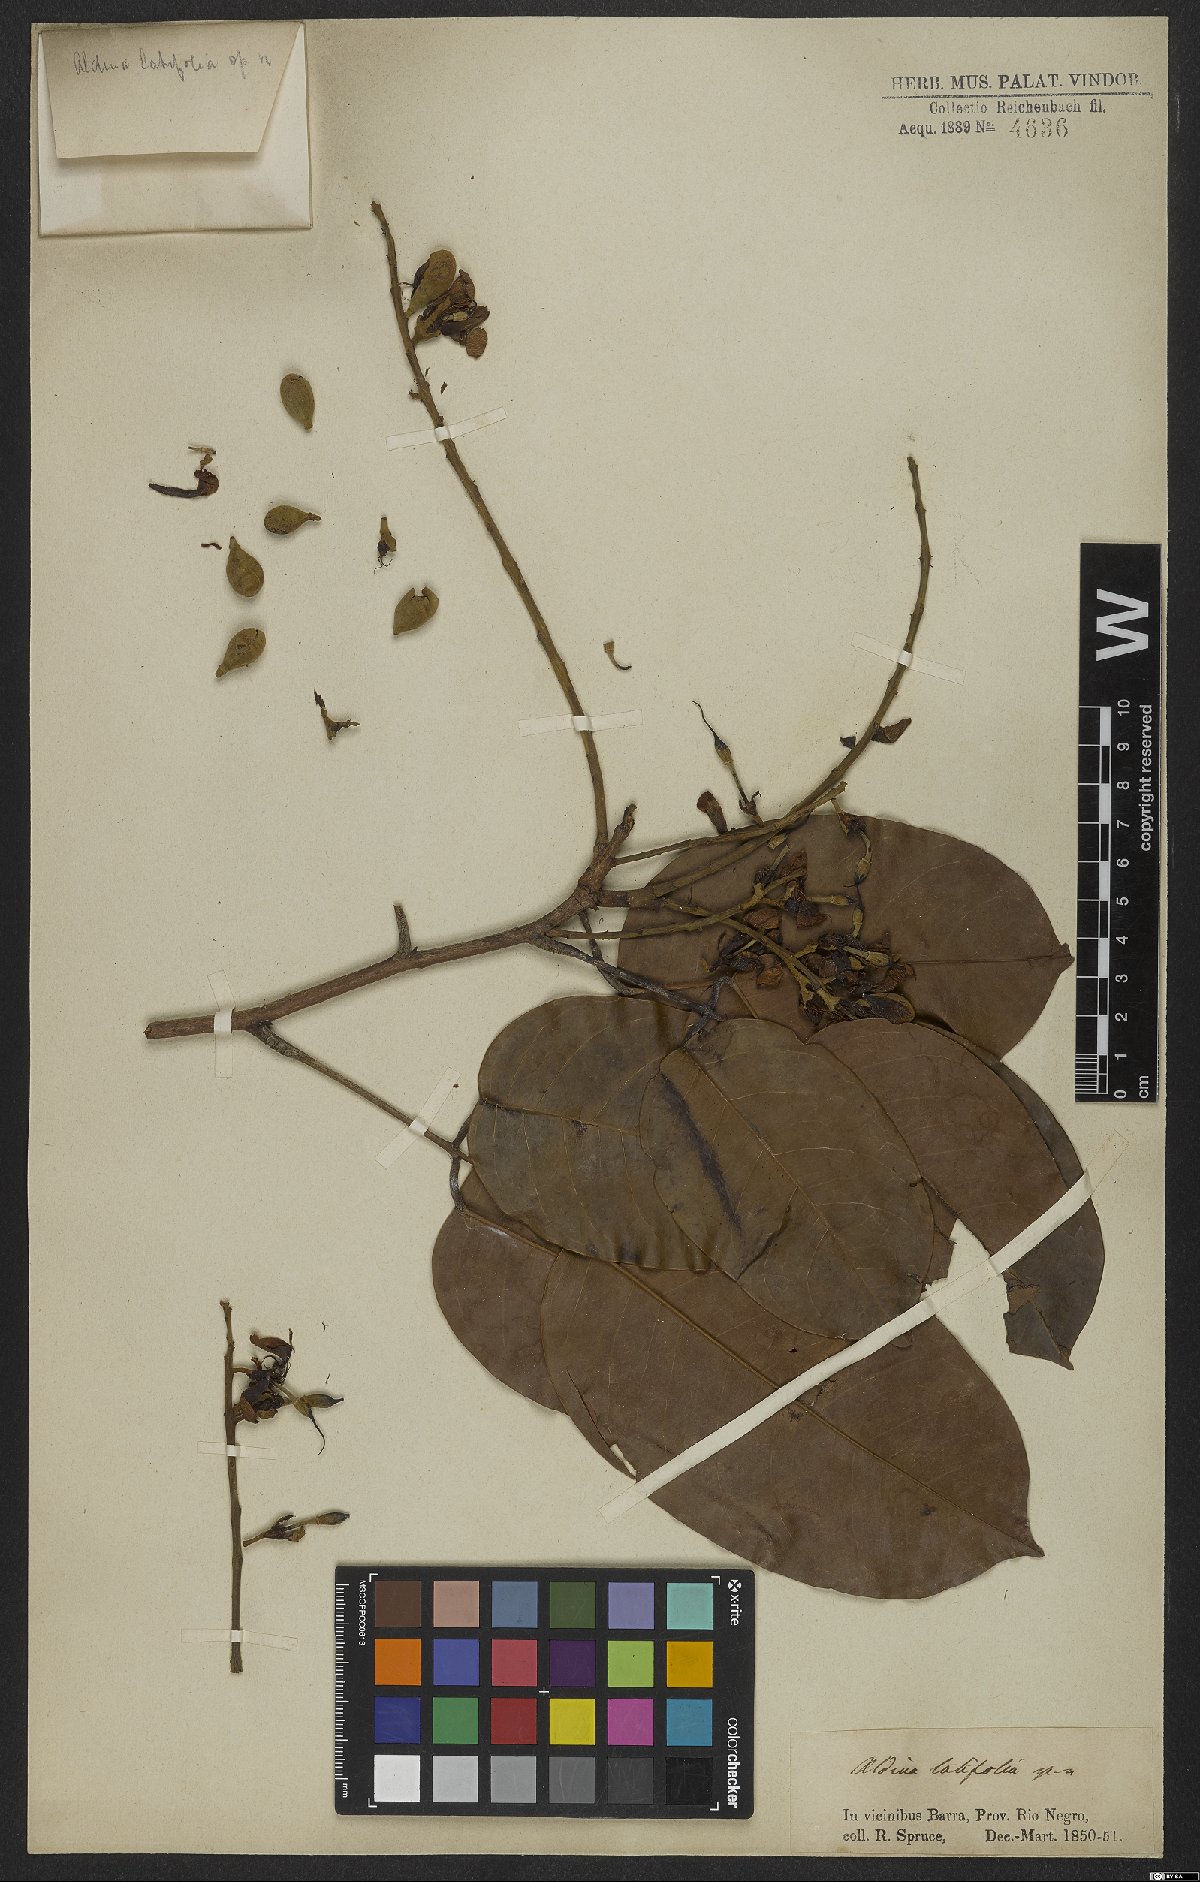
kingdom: Plantae
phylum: Tracheophyta
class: Magnoliopsida
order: Fabales
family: Fabaceae
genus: Aldina
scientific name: Aldina latifolia
